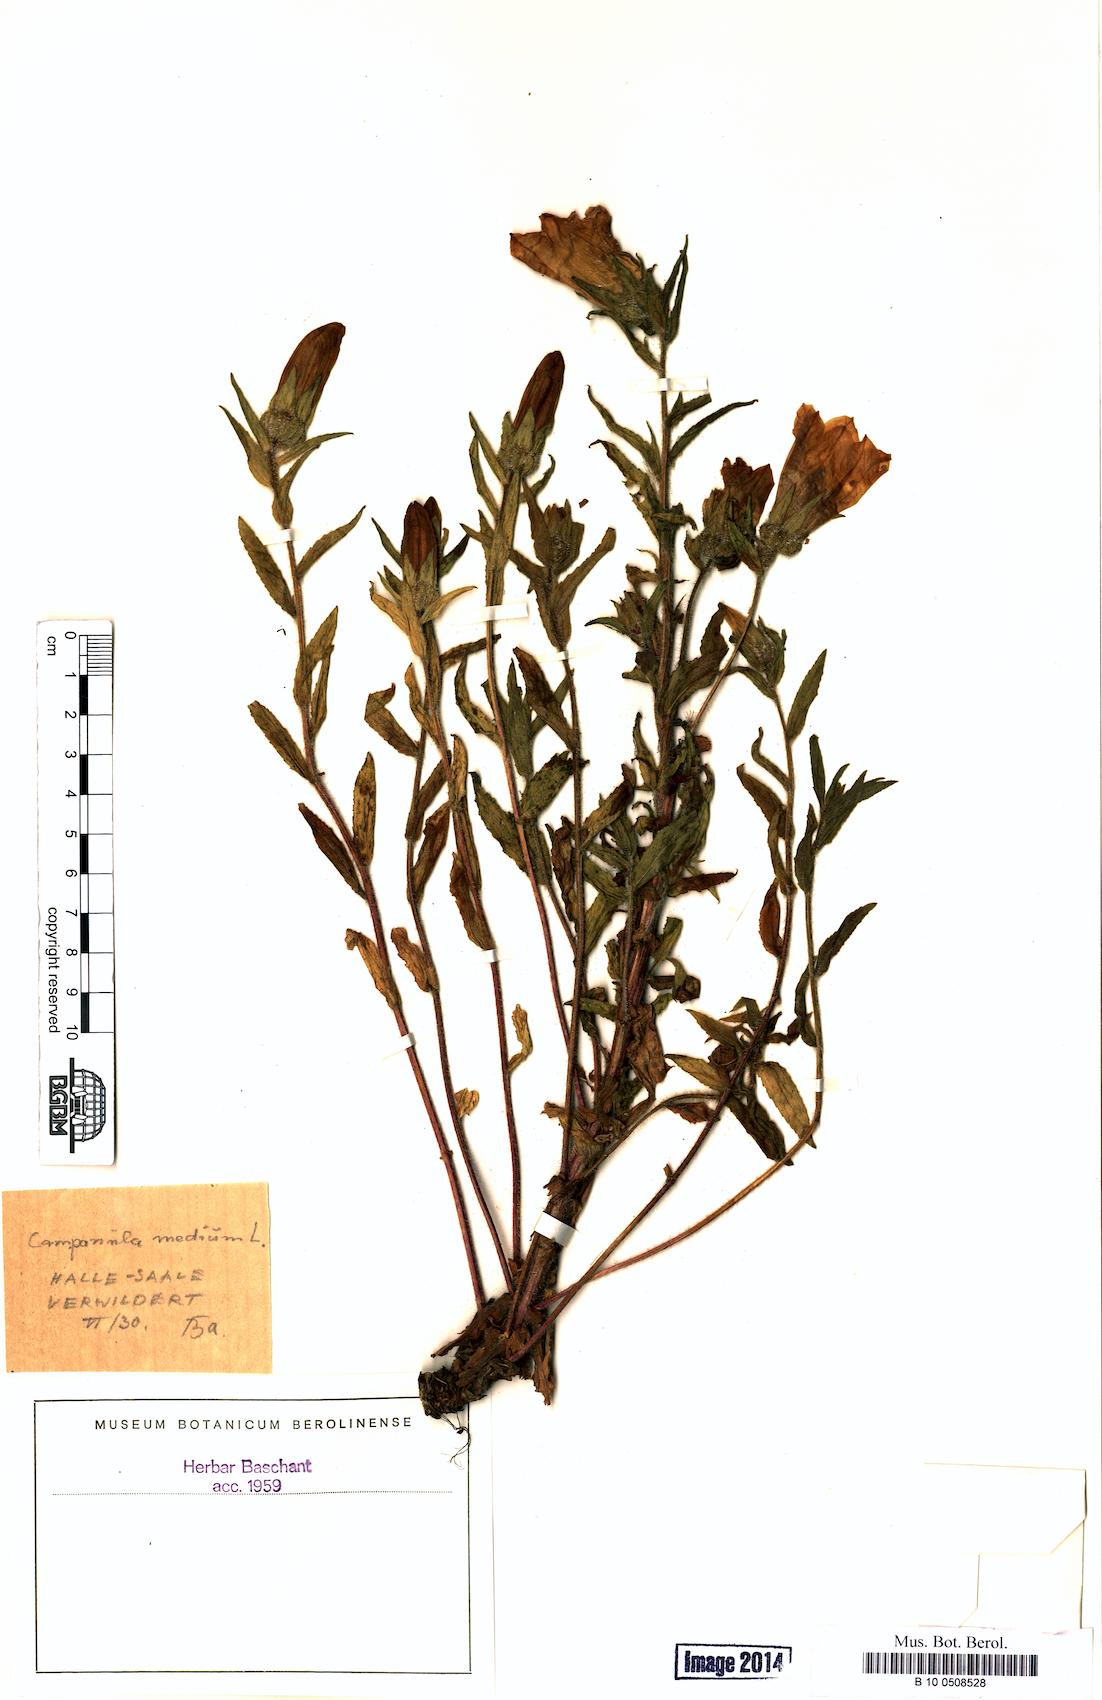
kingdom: Plantae
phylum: Tracheophyta
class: Magnoliopsida
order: Asterales
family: Campanulaceae
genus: Campanula
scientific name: Campanula medium
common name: Canterbury bells
